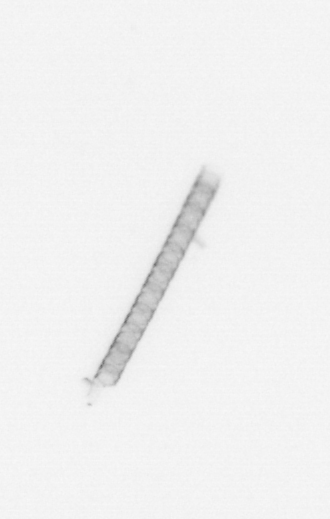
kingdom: Chromista
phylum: Ochrophyta
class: Bacillariophyceae
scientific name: Bacillariophyceae
